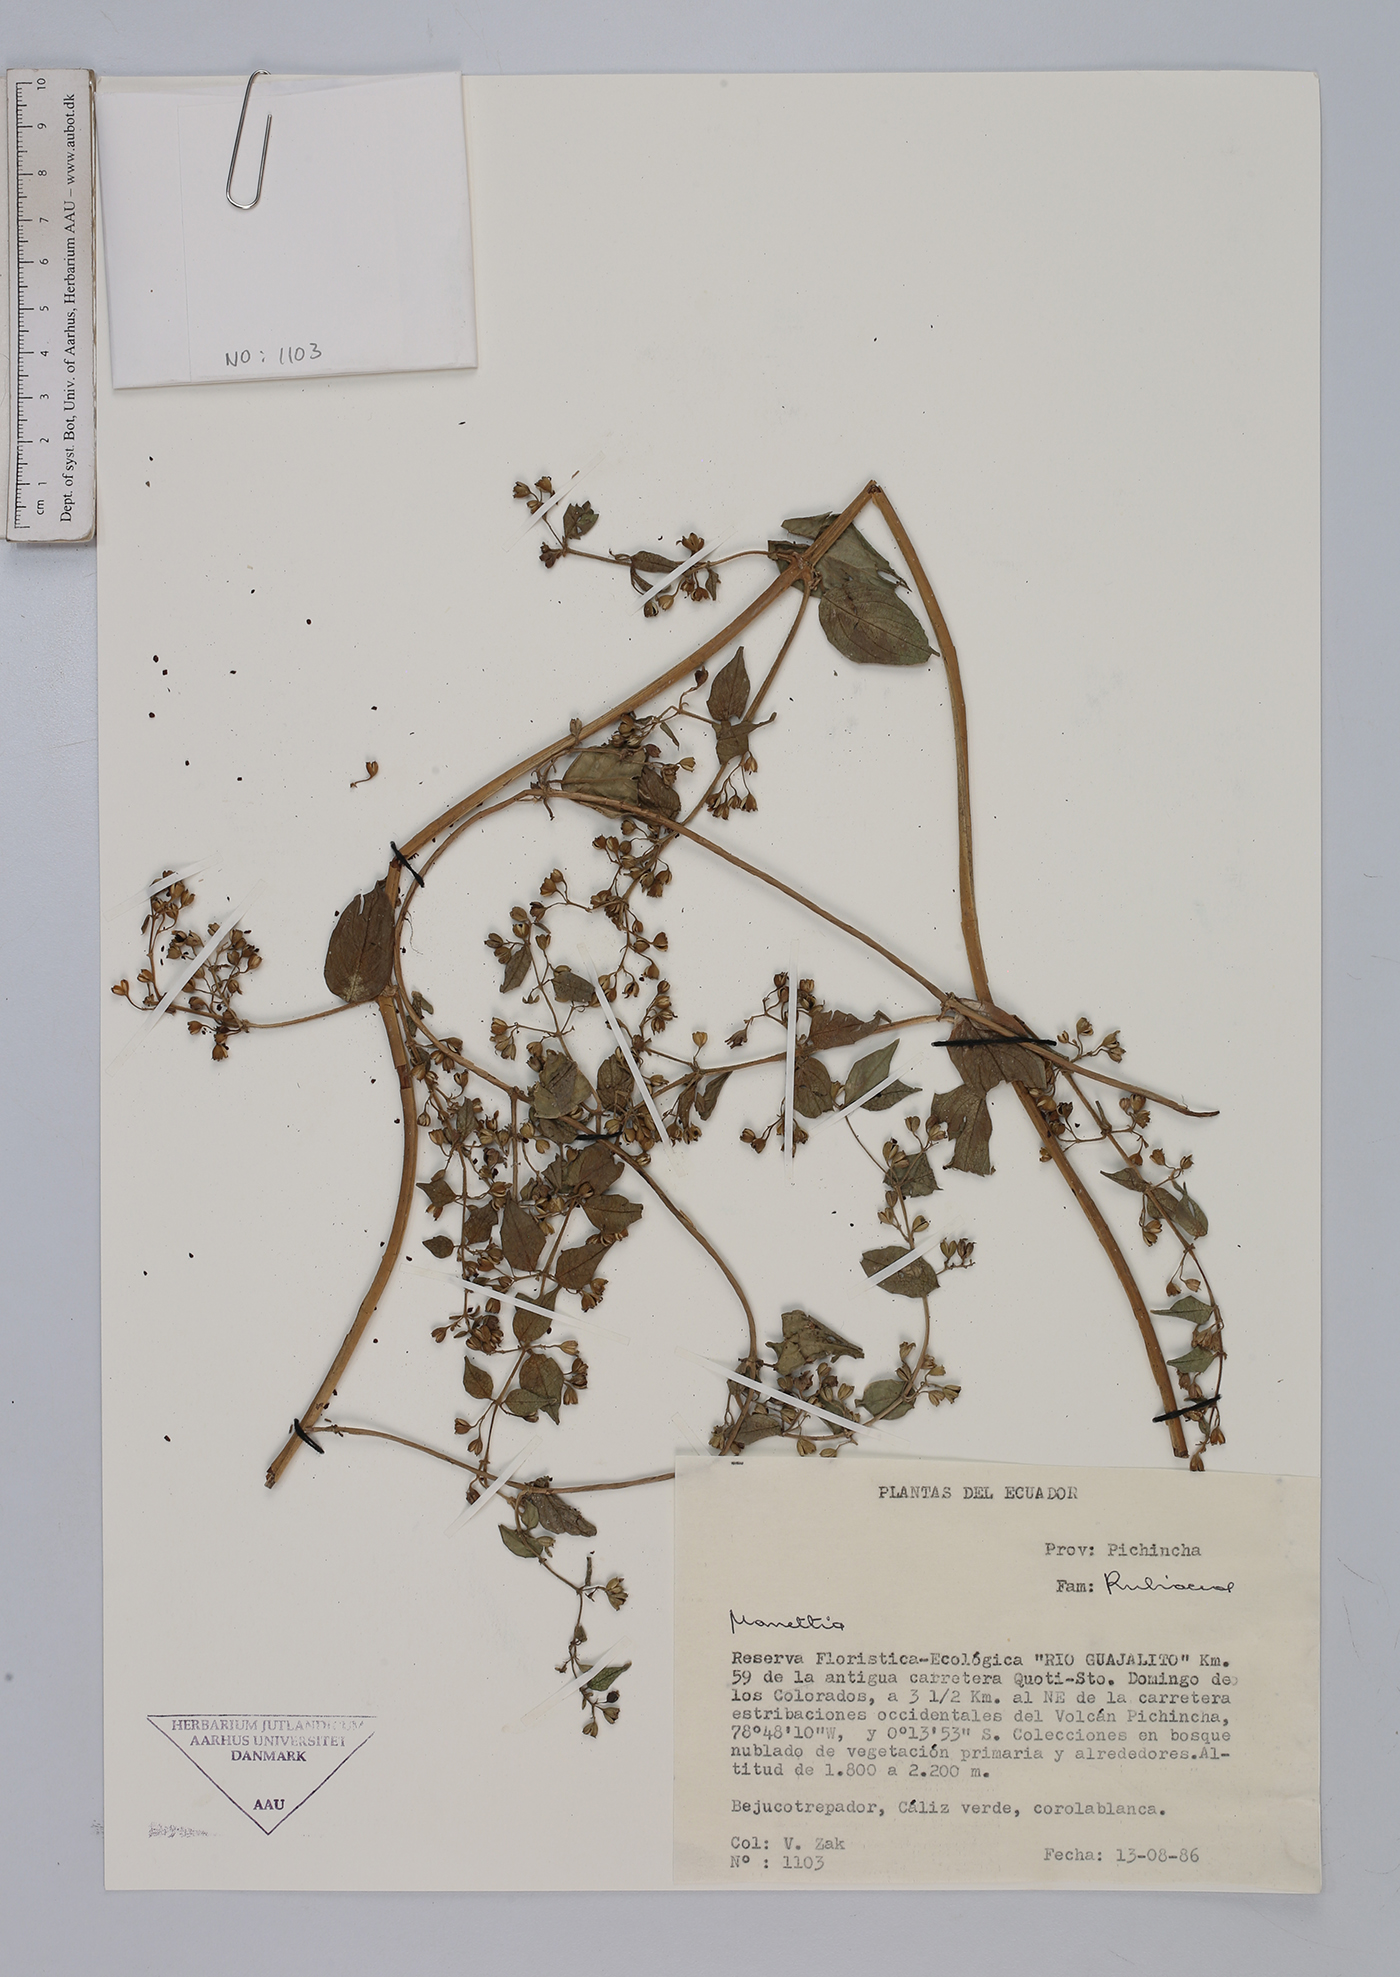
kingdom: Plantae
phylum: Tracheophyta
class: Magnoliopsida
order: Gentianales
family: Rubiaceae
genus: Manettia
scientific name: Manettia
